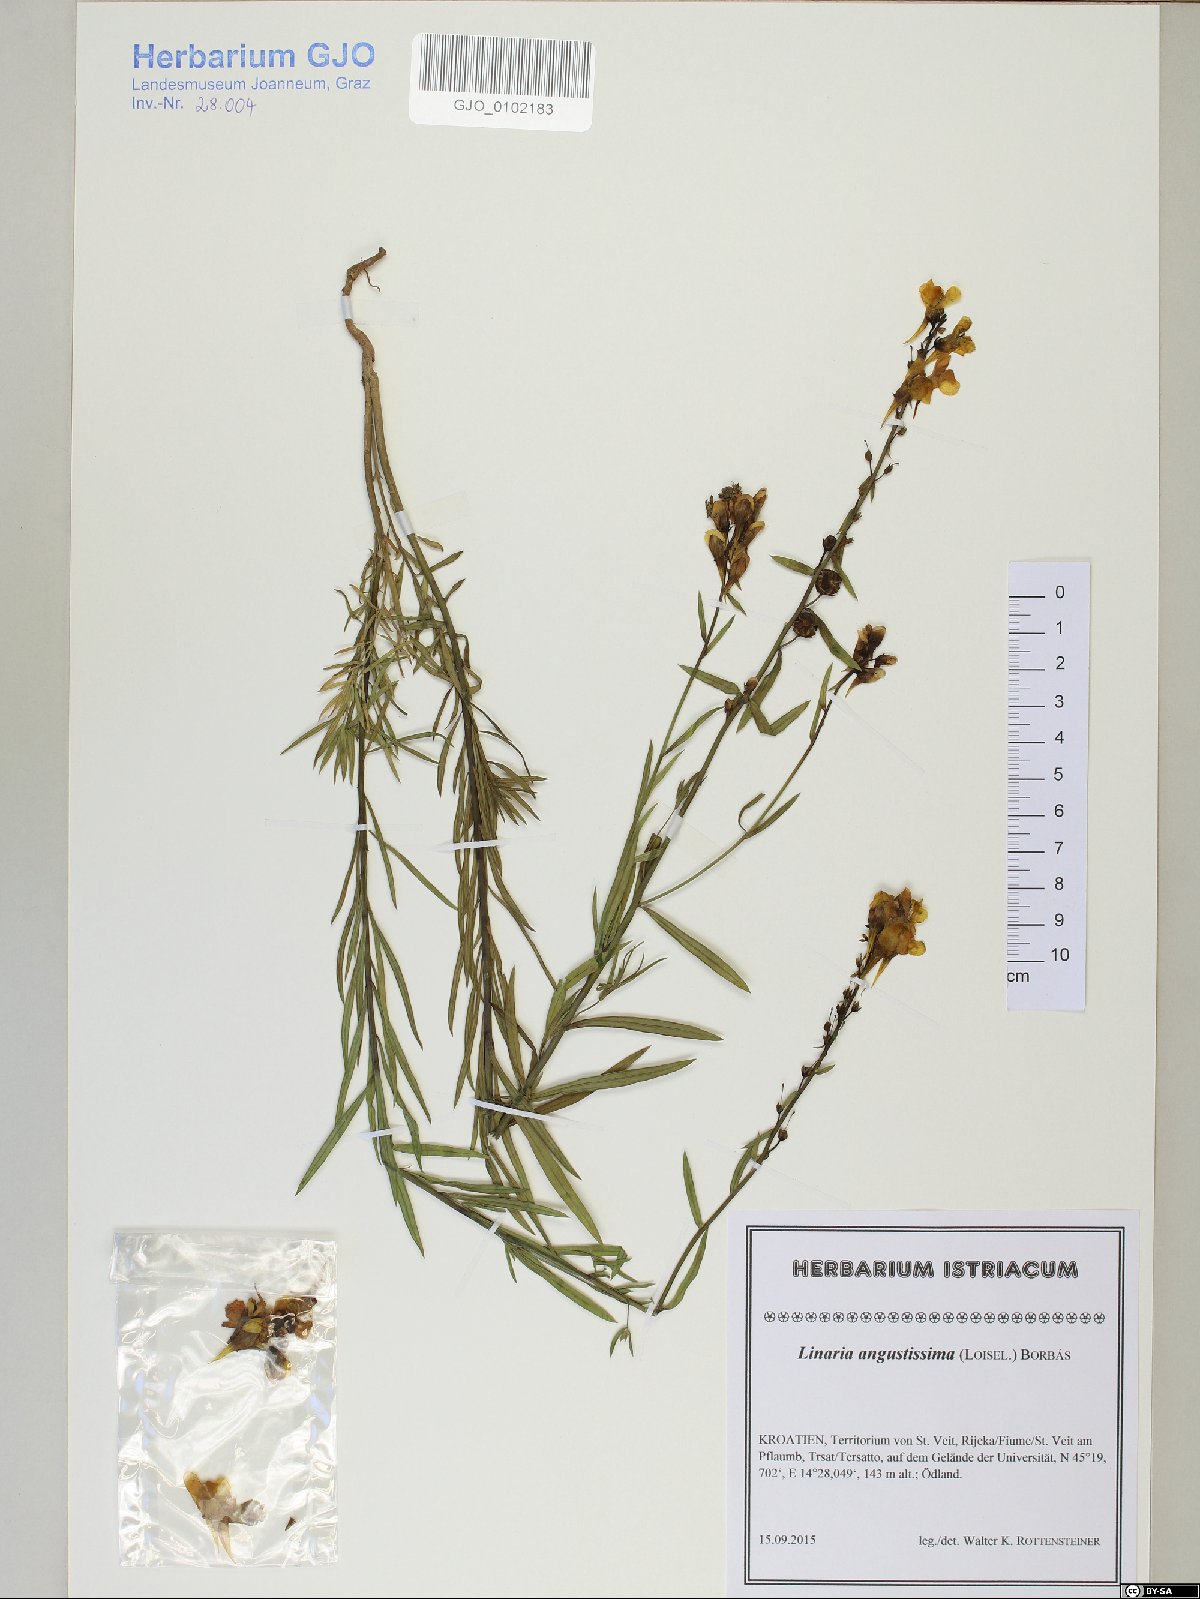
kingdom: Plantae
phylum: Tracheophyta
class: Magnoliopsida
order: Lamiales
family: Plantaginaceae
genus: Linaria
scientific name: Linaria angustissima
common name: Italian toadflax
